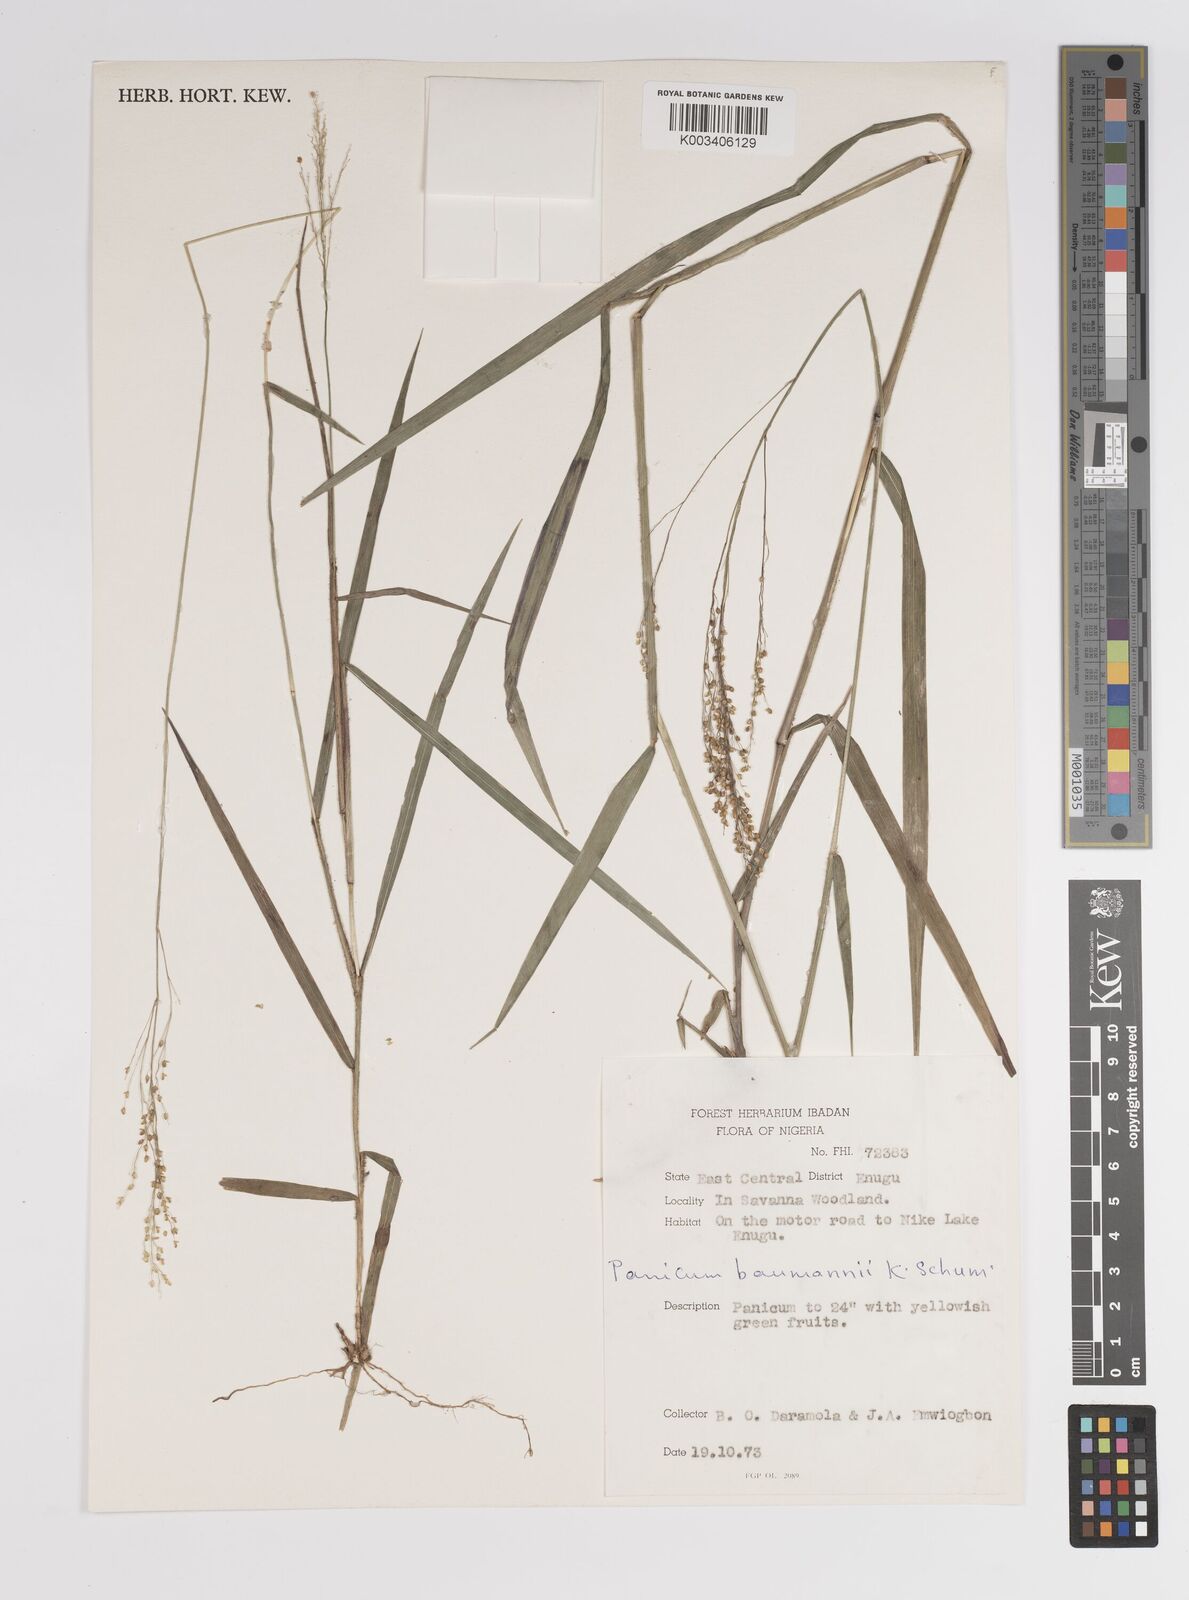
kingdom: Plantae
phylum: Tracheophyta
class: Liliopsida
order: Poales
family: Poaceae
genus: Trichanthecium
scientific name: Trichanthecium nervatum
